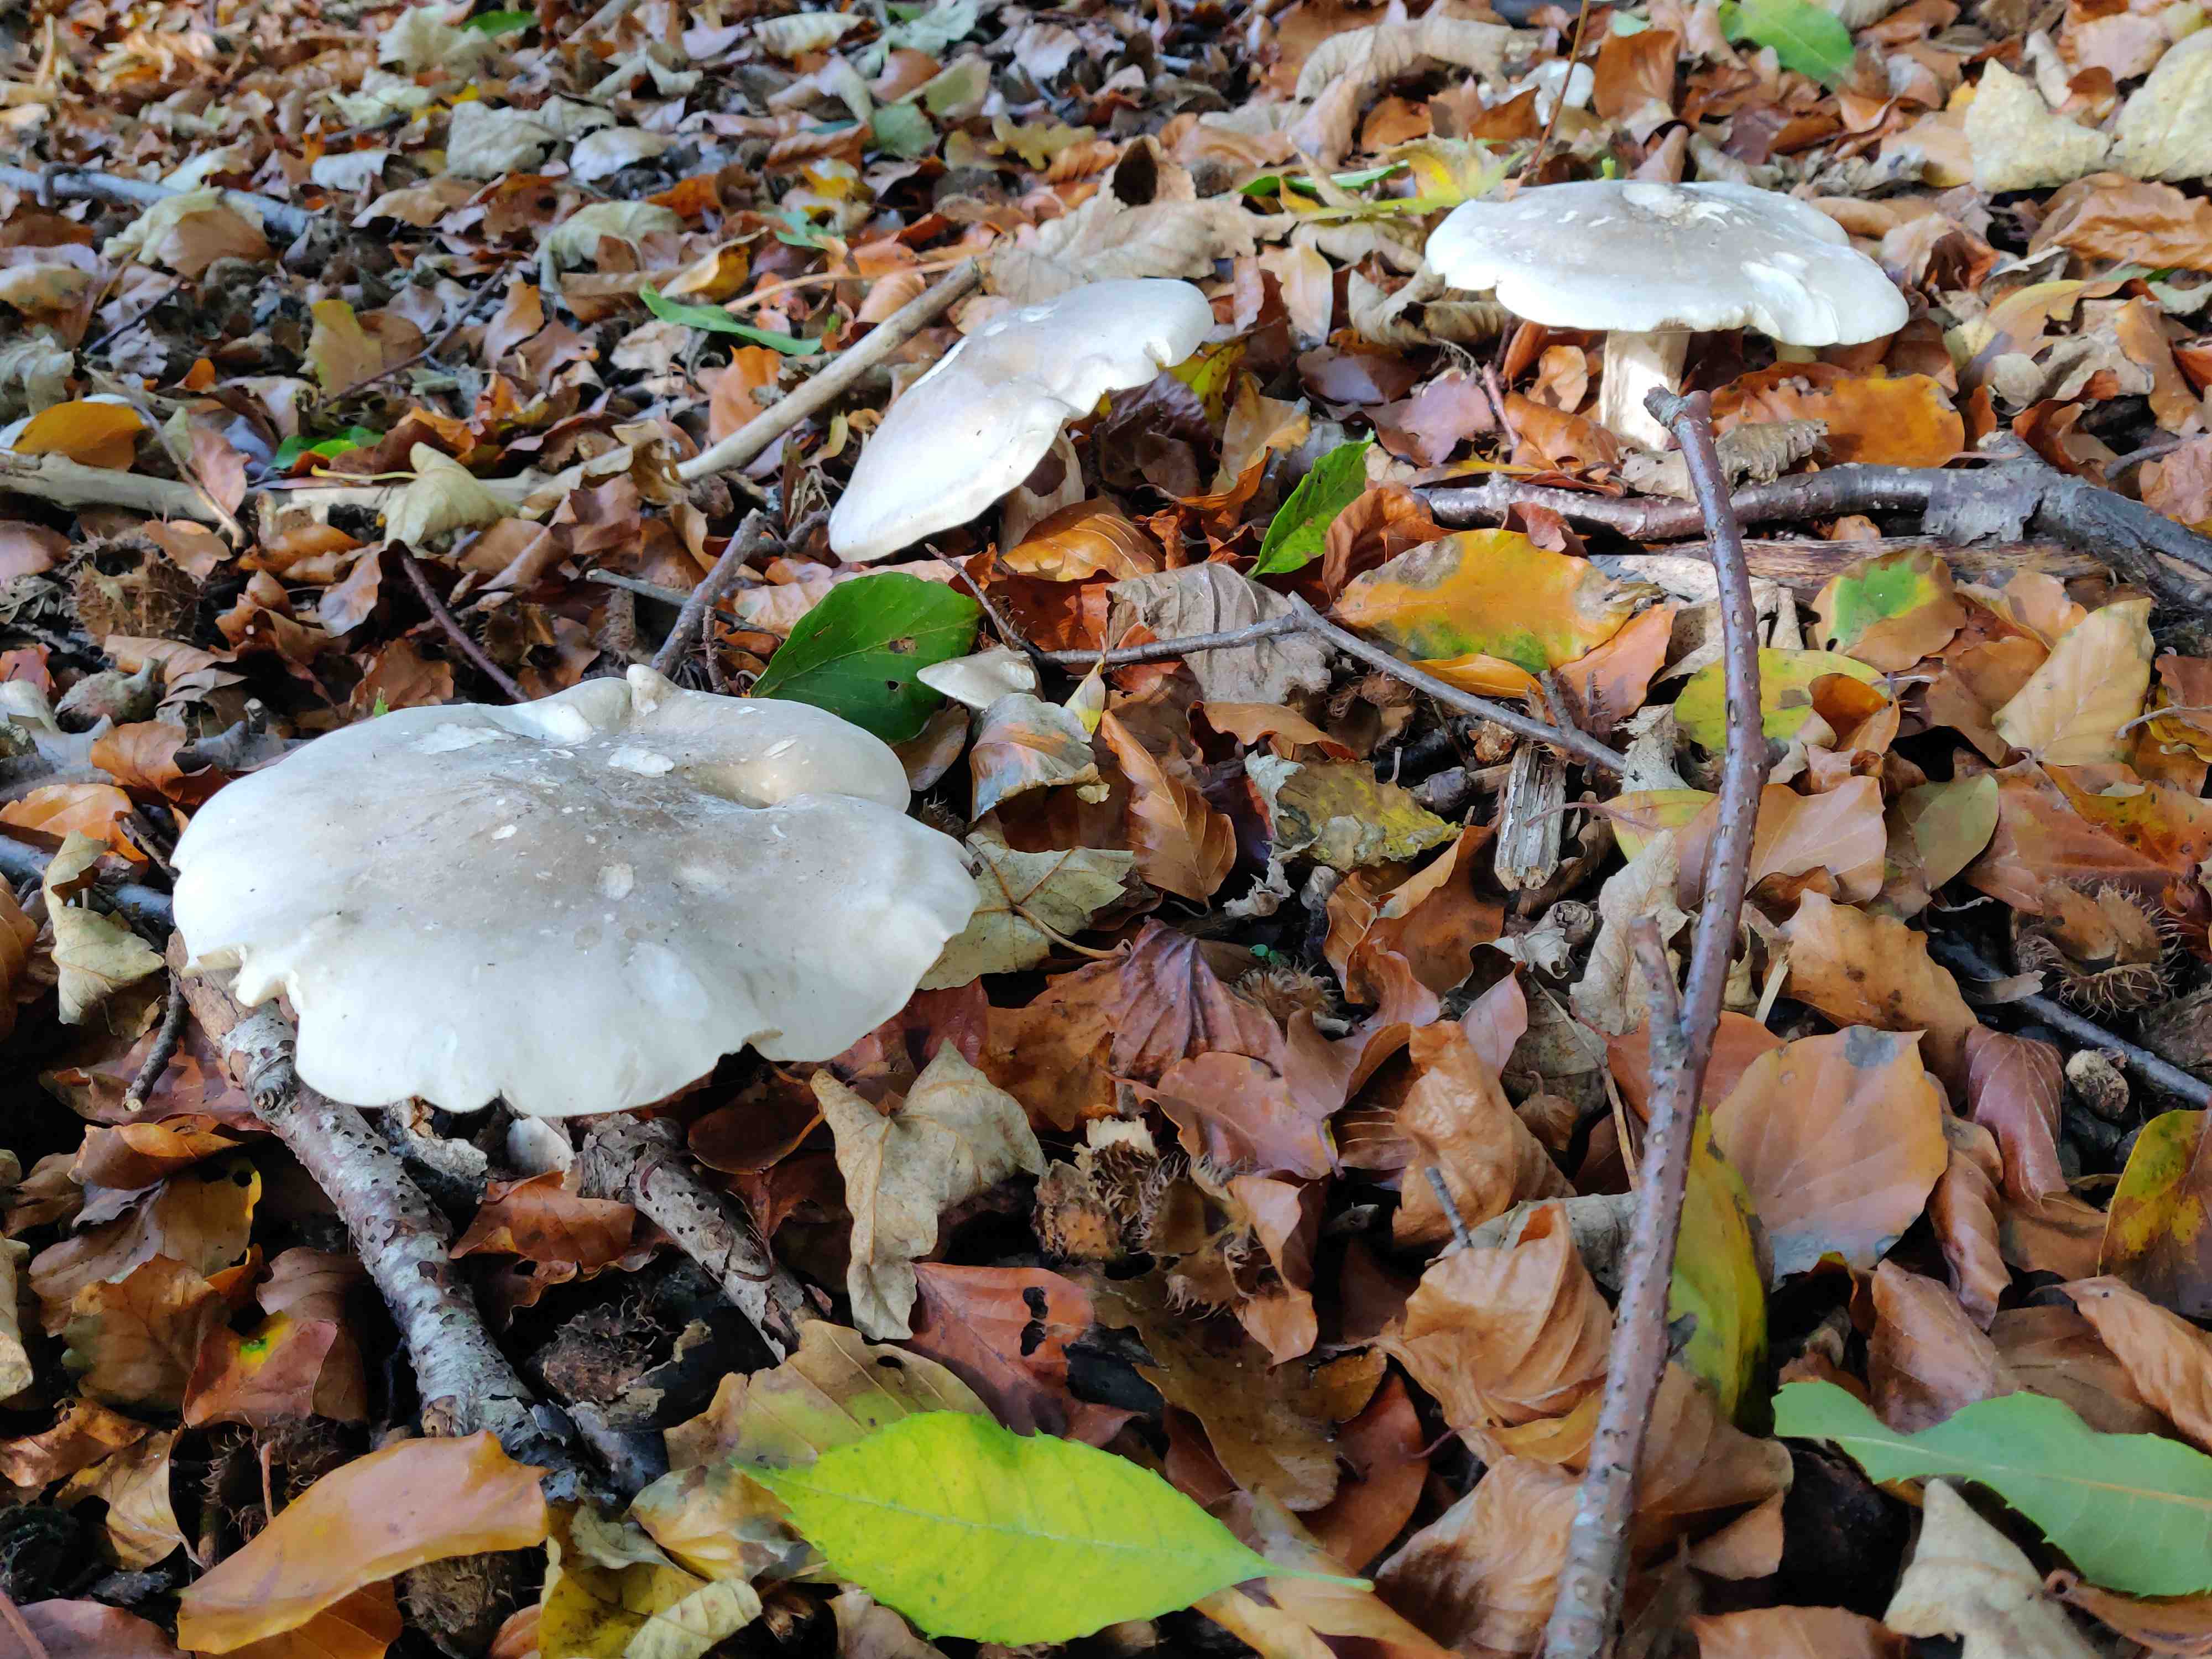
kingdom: Fungi
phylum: Basidiomycota
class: Agaricomycetes
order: Agaricales
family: Tricholomataceae
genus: Clitocybe
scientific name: Clitocybe nebularis
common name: tåge-tragthat
